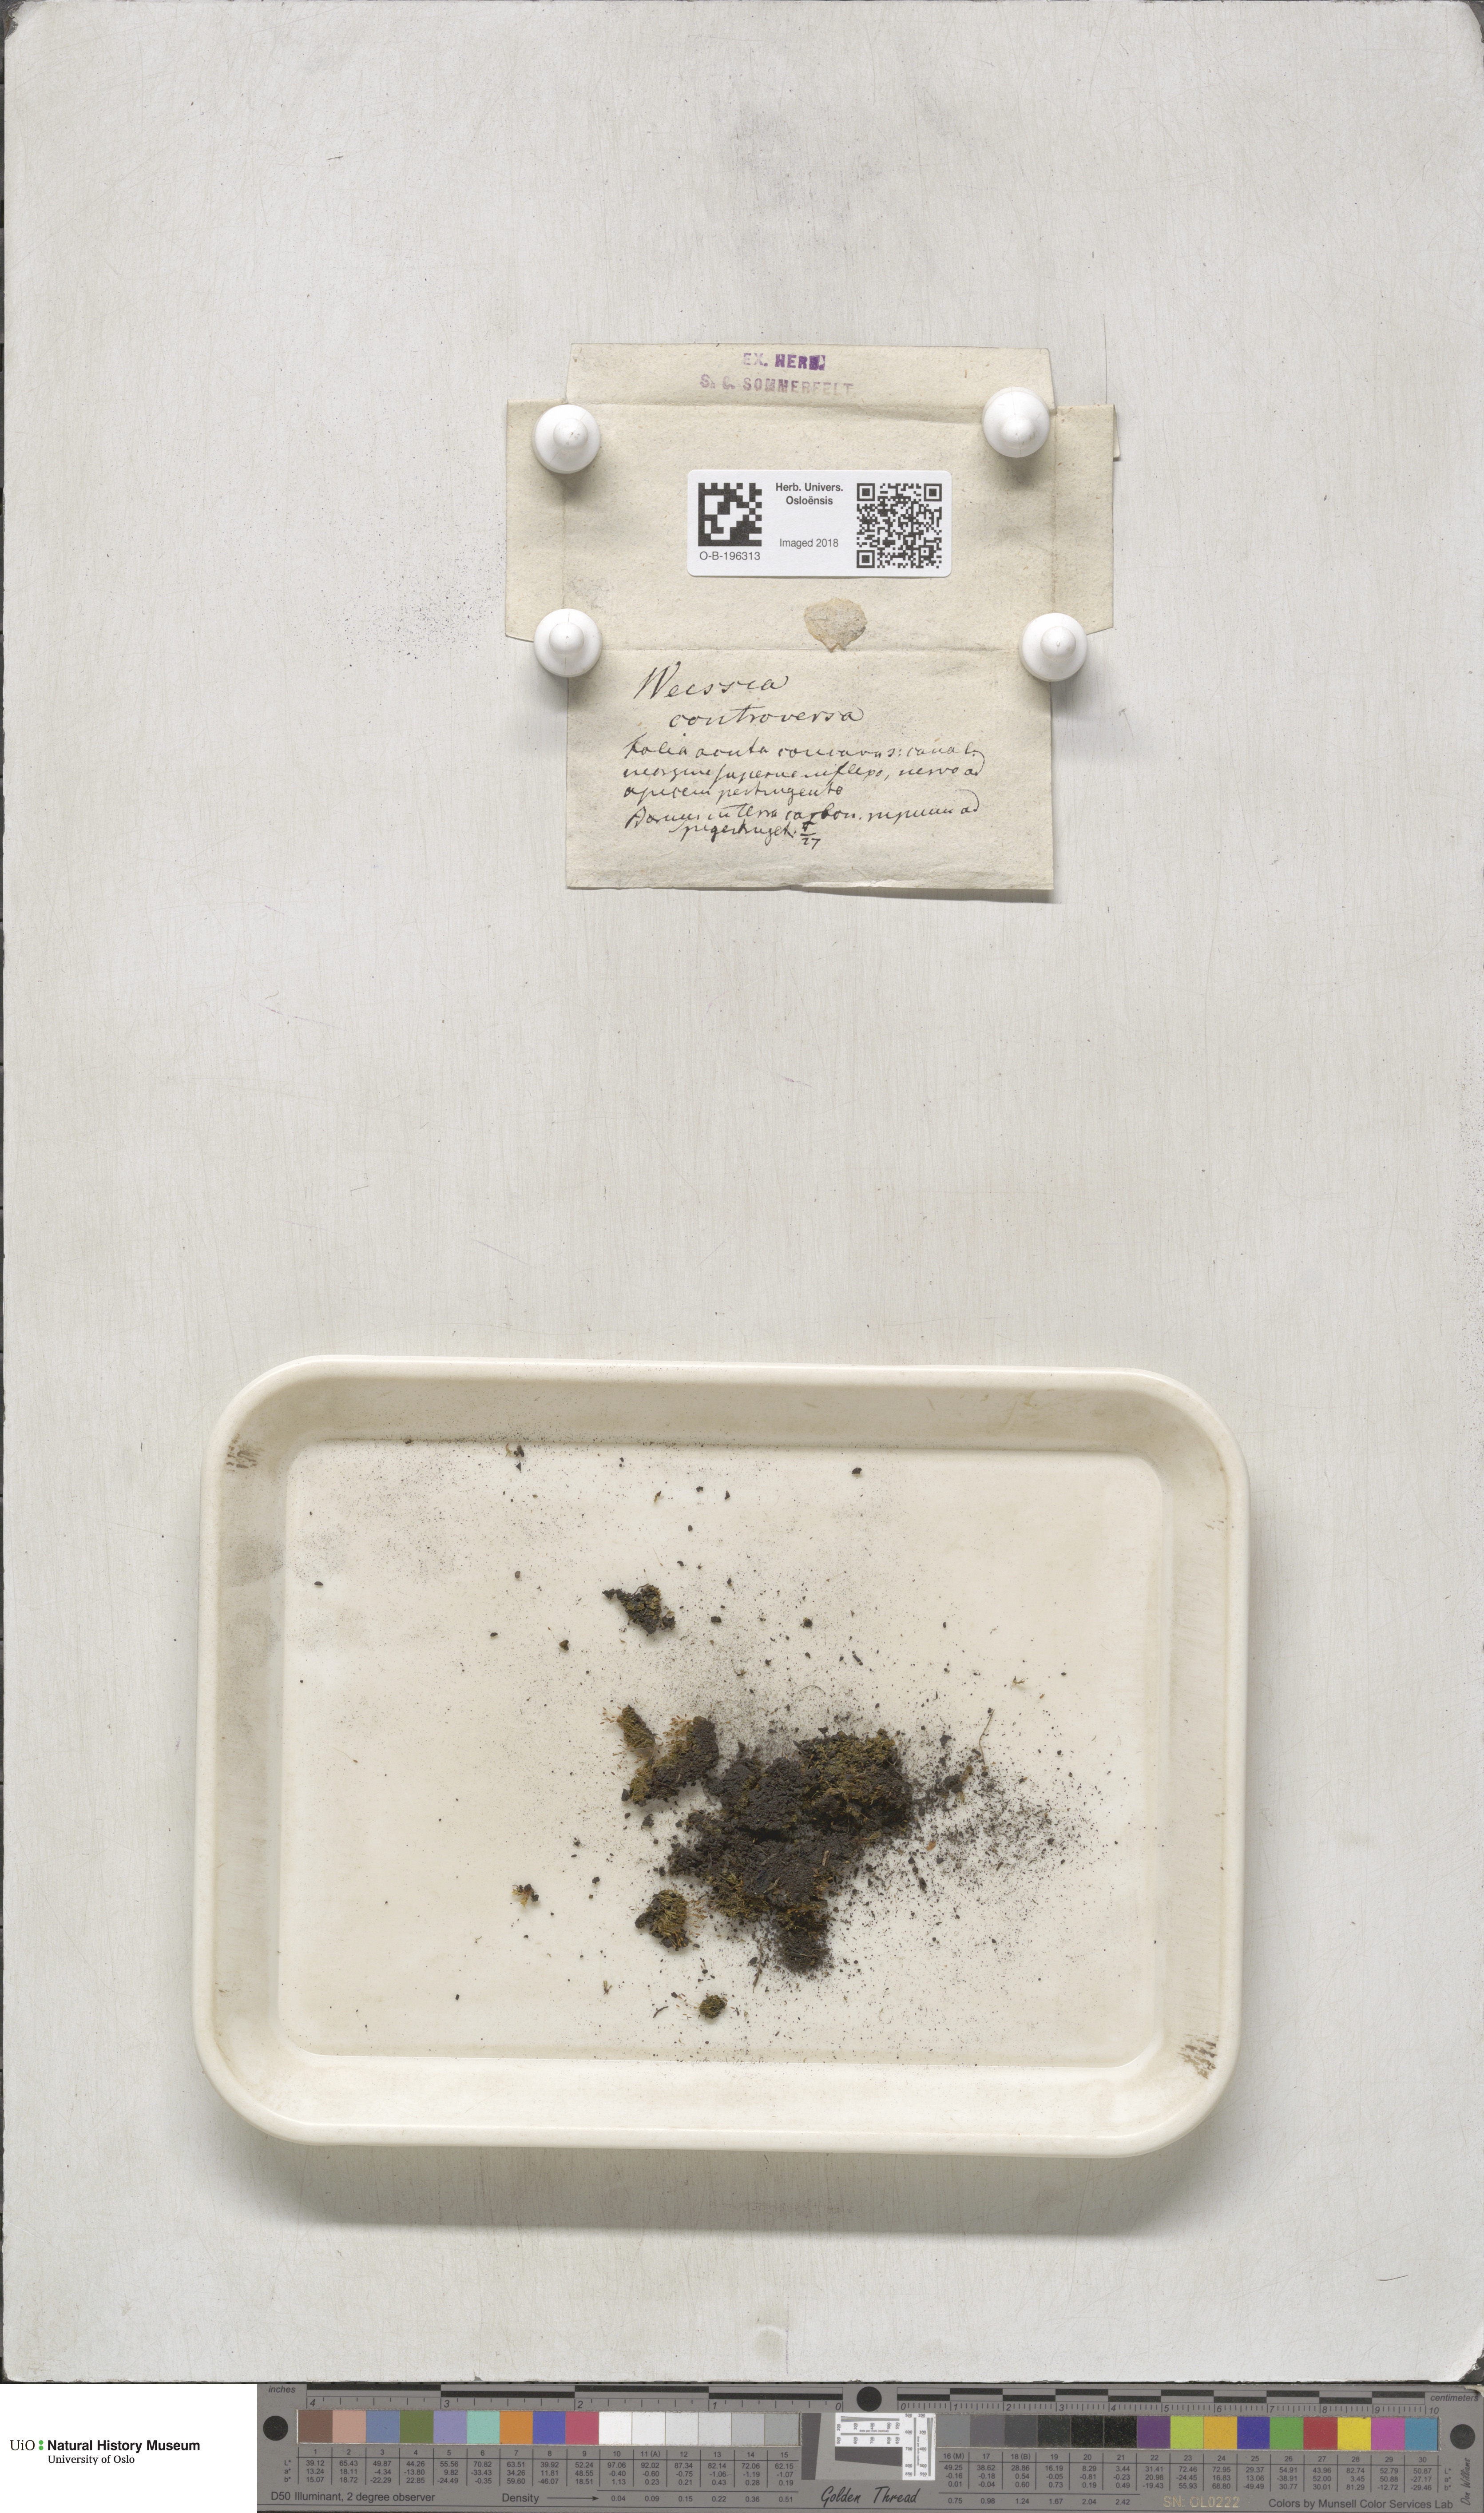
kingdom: Plantae
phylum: Bryophyta
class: Bryopsida
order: Pottiales
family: Pottiaceae
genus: Weissia
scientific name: Weissia controversa
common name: Green-tufted stubble moss
